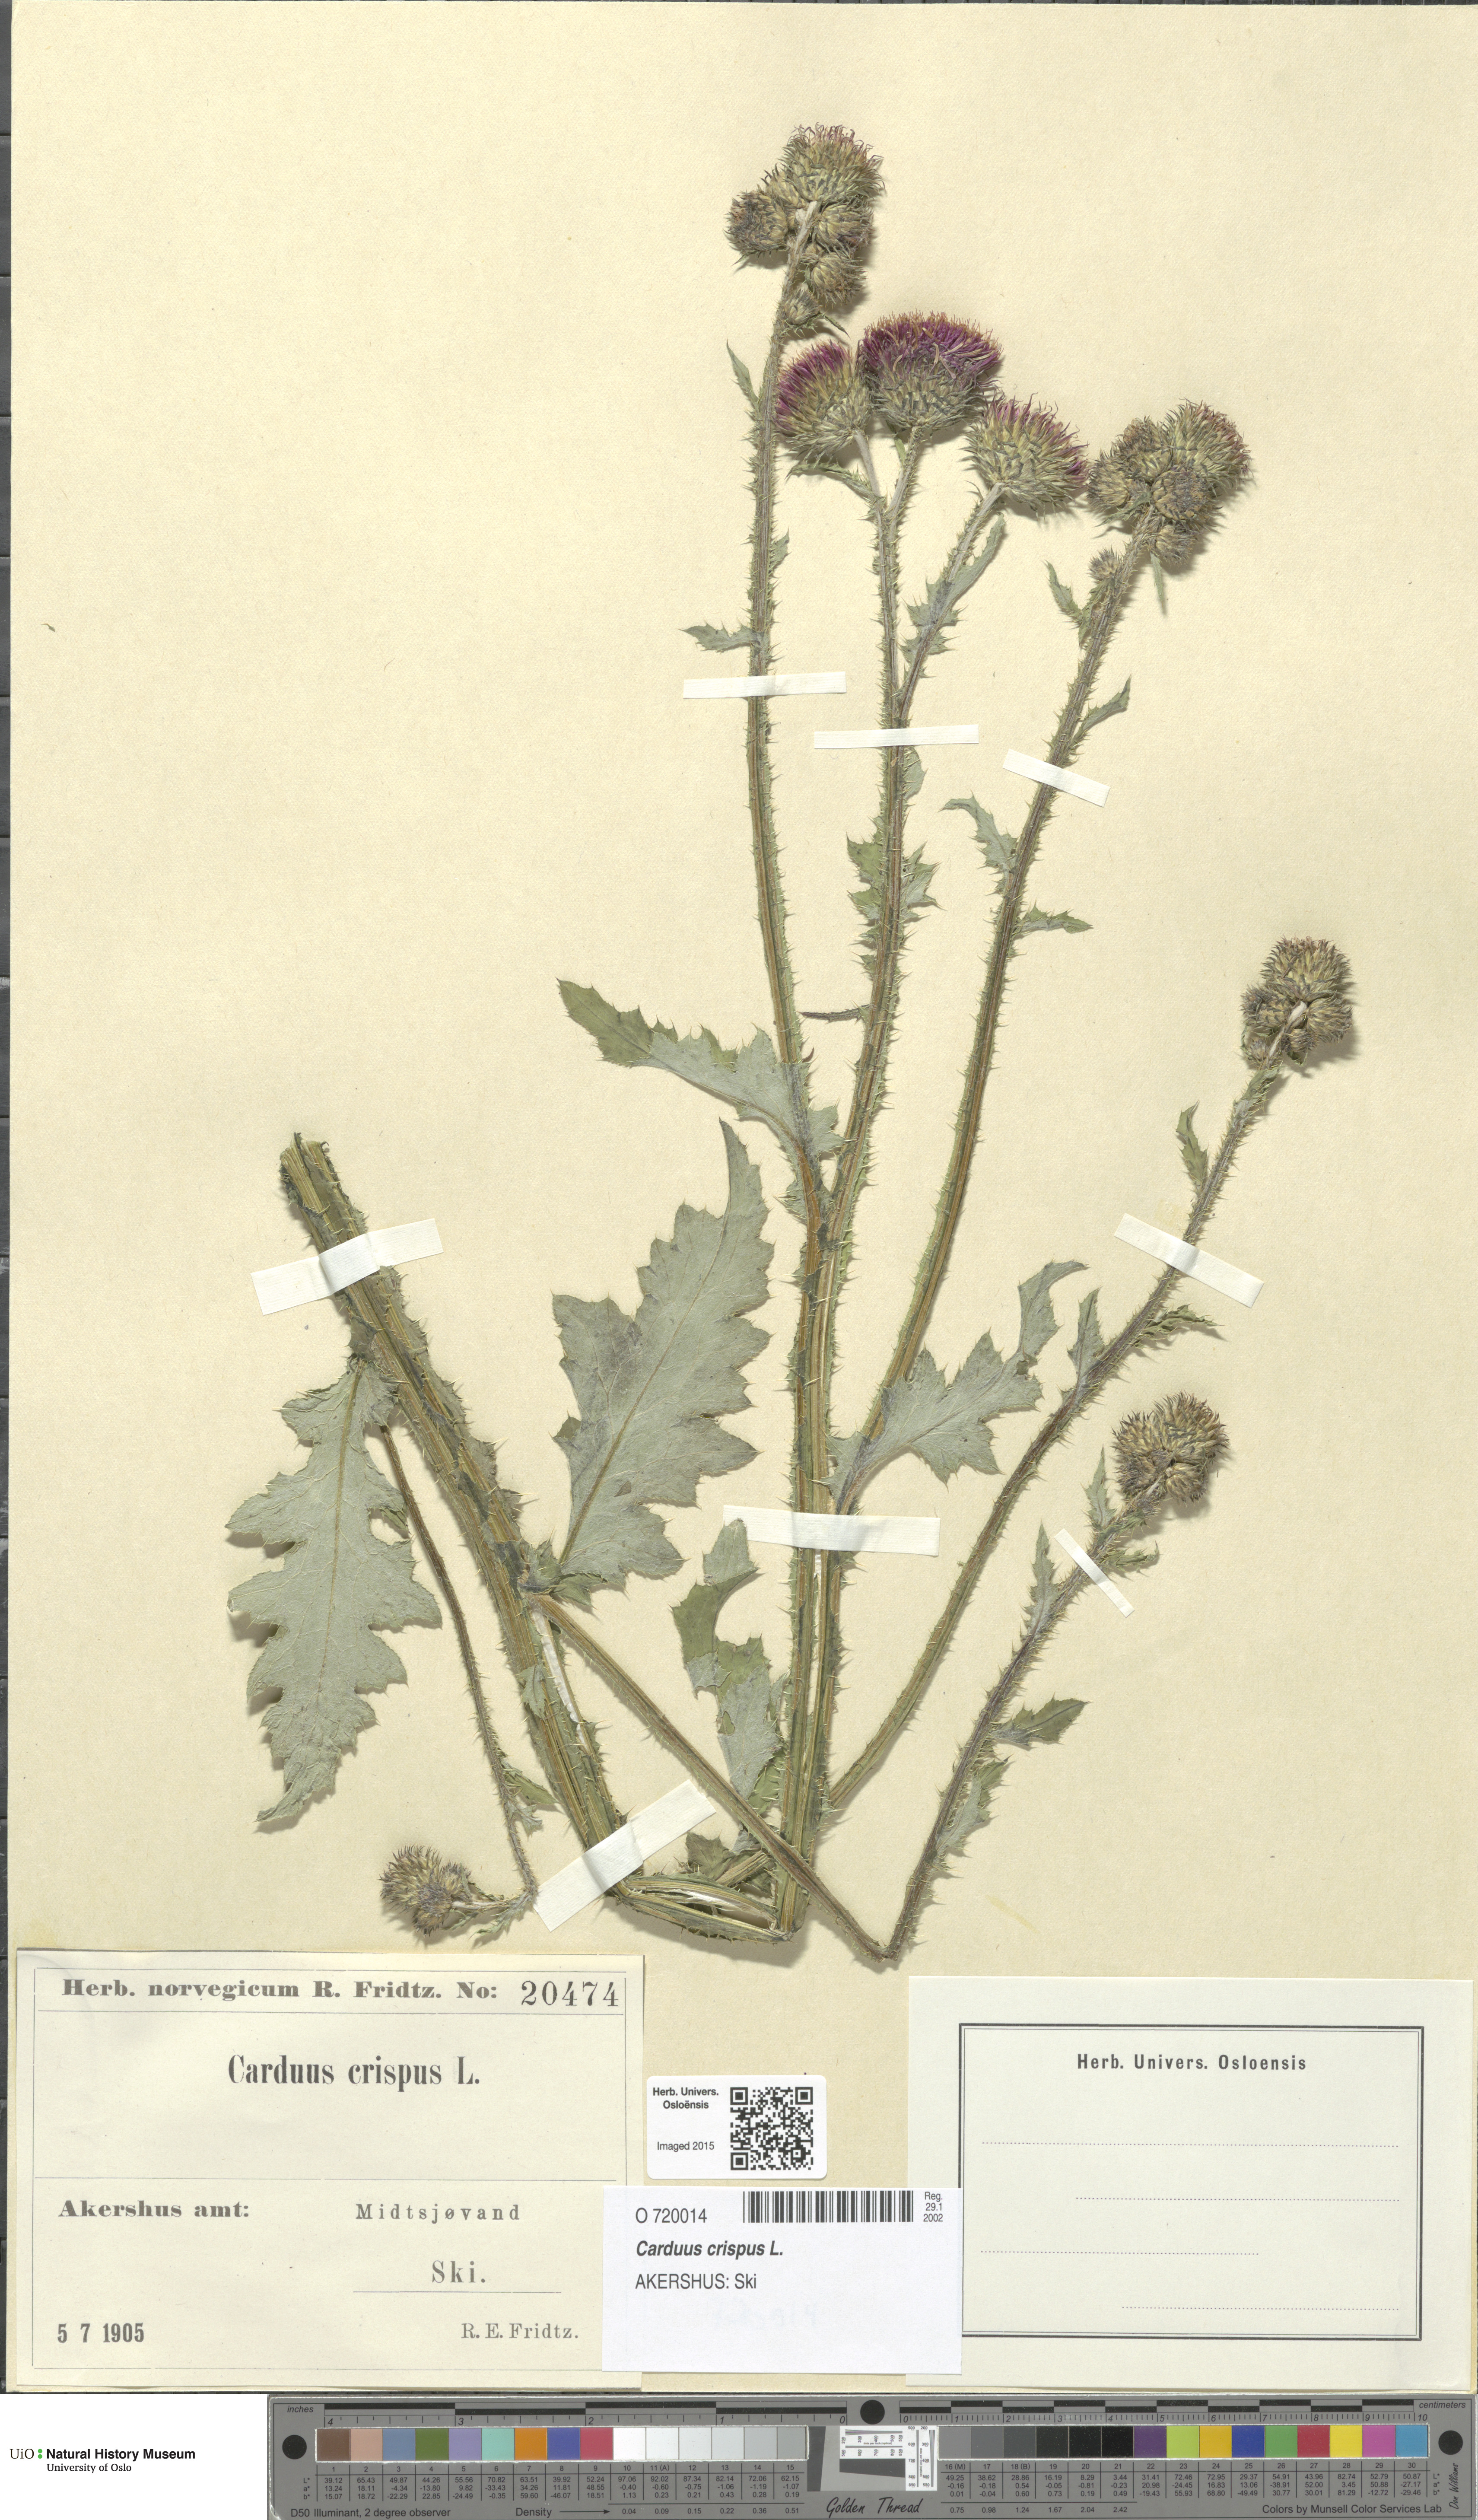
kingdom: Plantae
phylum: Tracheophyta
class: Magnoliopsida
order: Asterales
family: Asteraceae
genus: Carduus
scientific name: Carduus crispus
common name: Welted thistle
